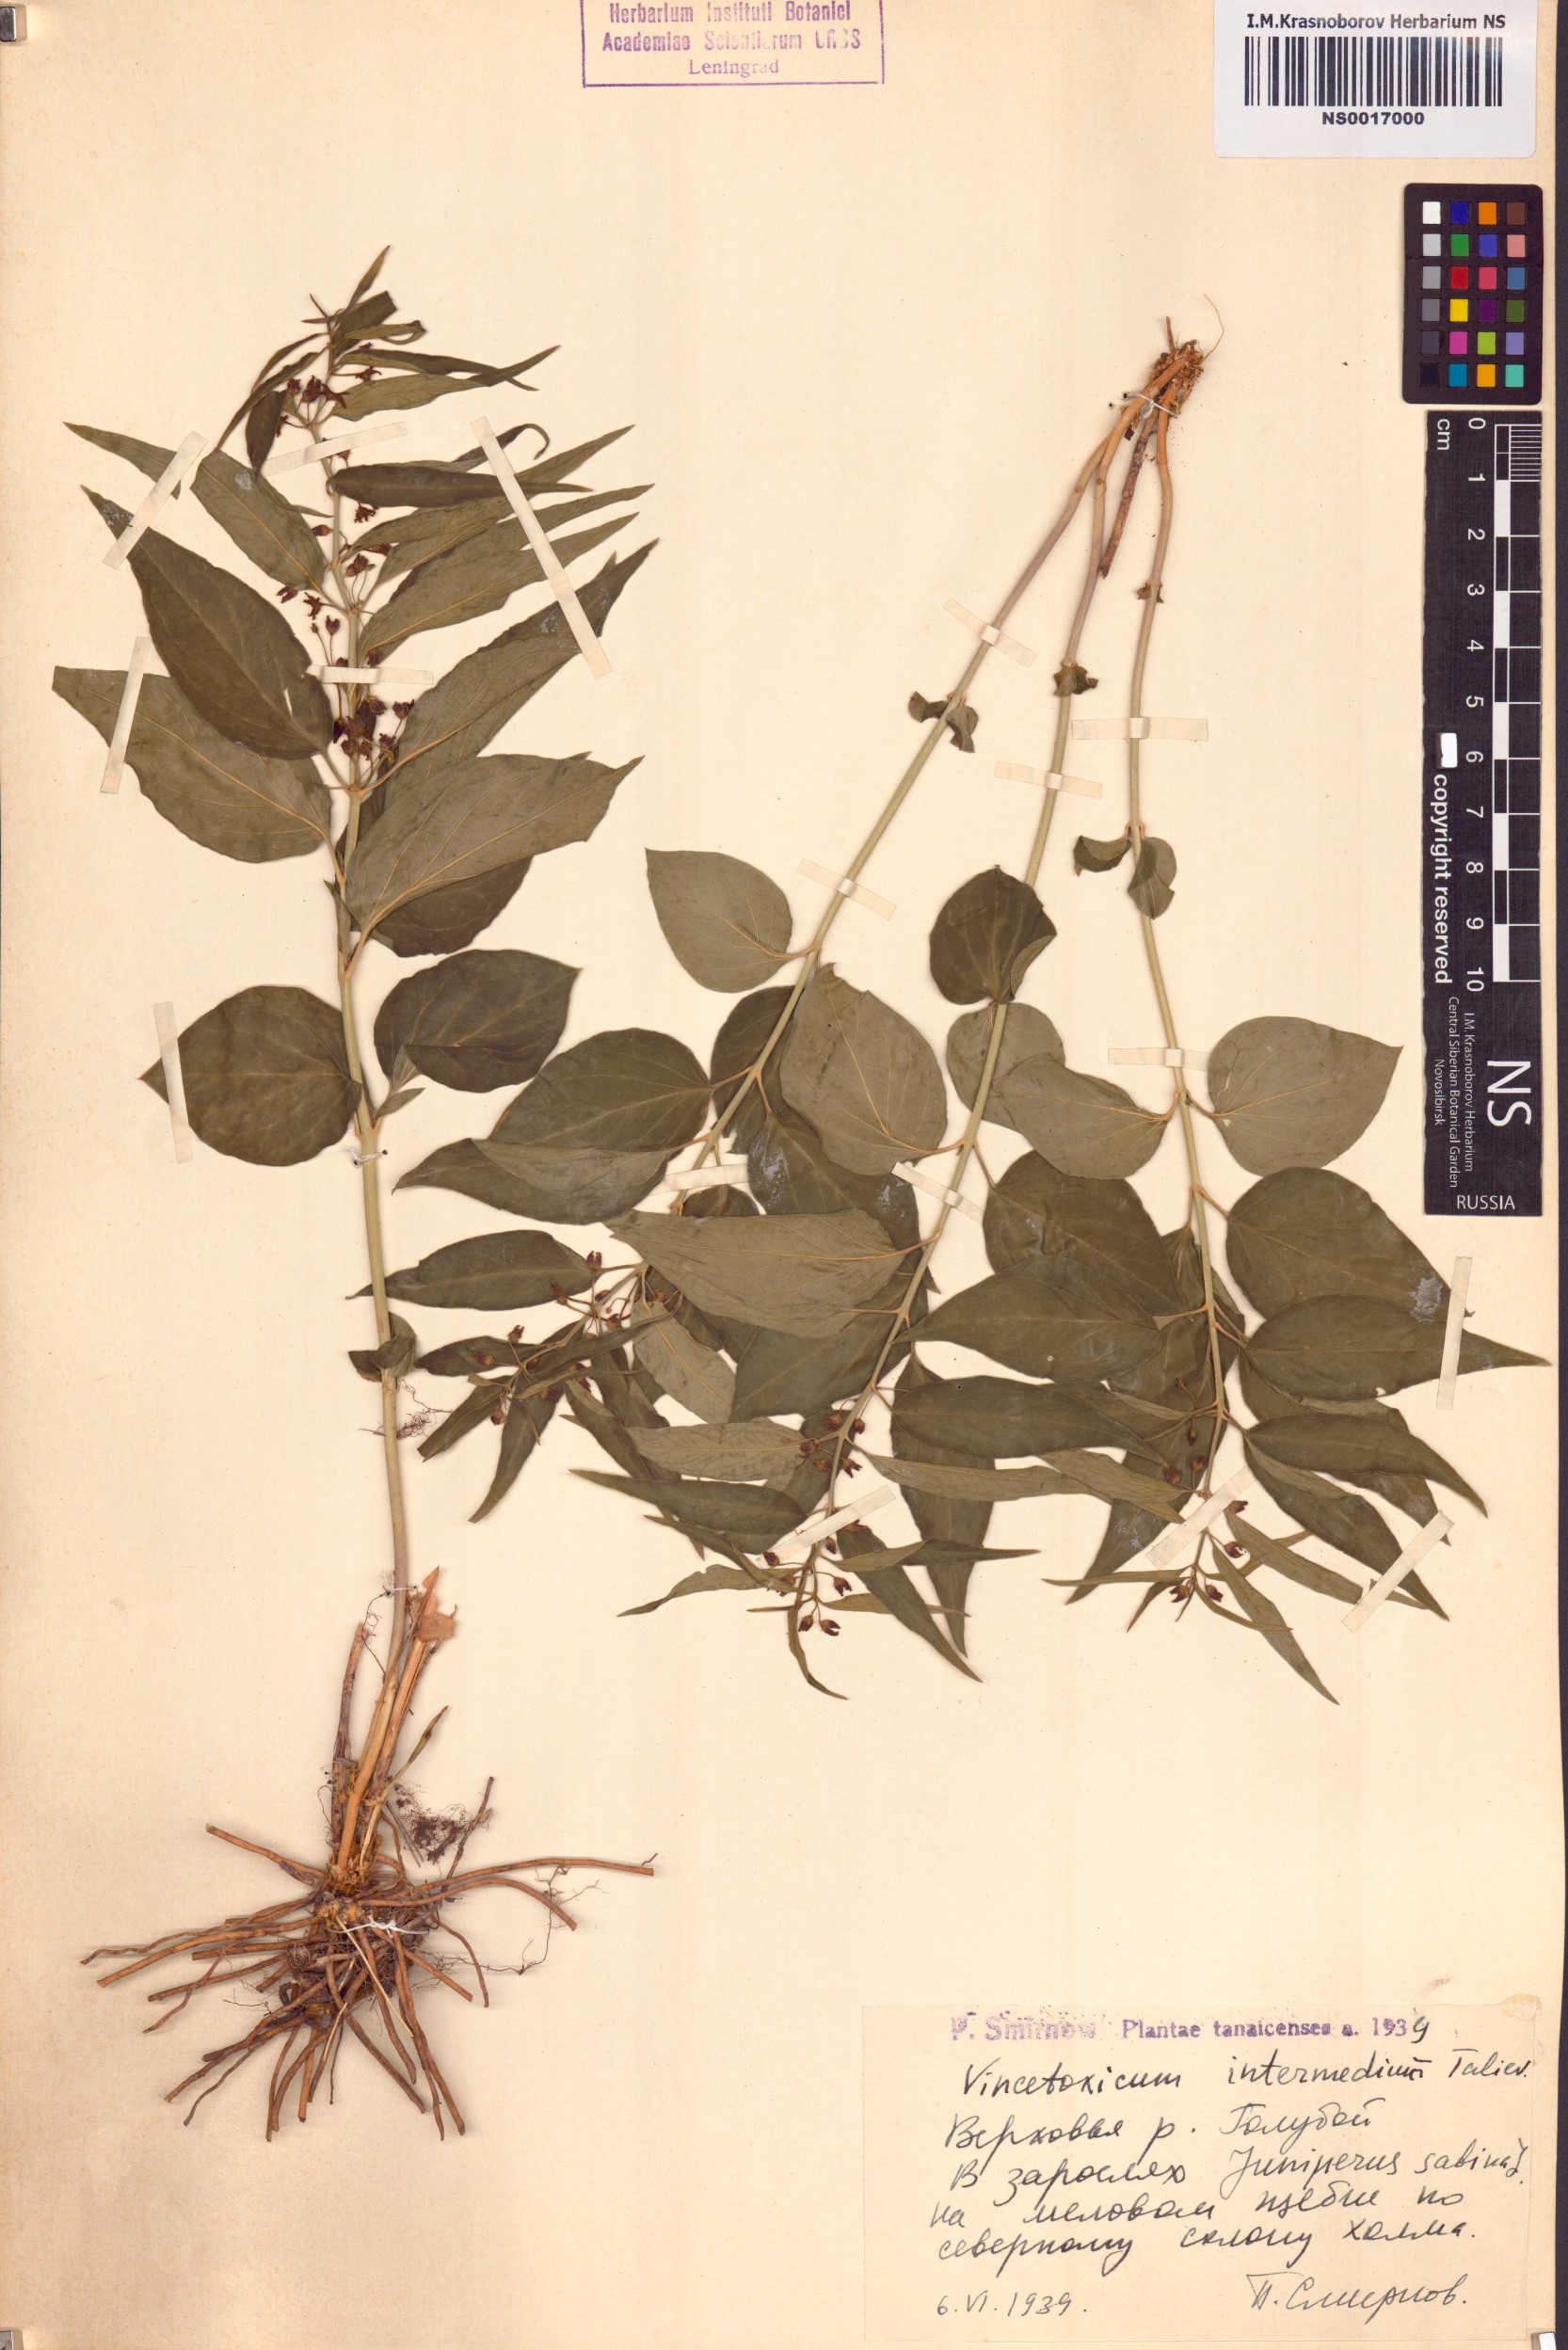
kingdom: Plantae
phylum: Tracheophyta
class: Magnoliopsida
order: Gentianales
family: Apocynaceae
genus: Vincetoxicum
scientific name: Vincetoxicum fuscatum
